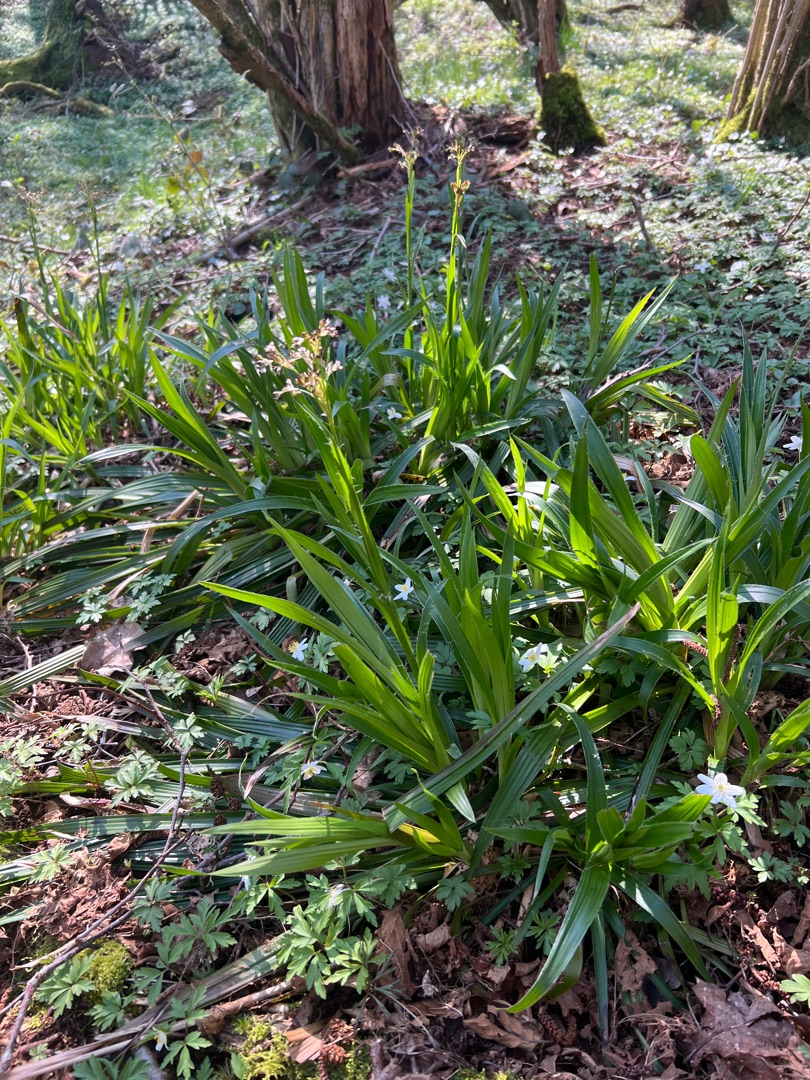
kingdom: Plantae
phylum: Tracheophyta
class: Liliopsida
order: Poales
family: Juncaceae
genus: Luzula
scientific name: Luzula sylvatica
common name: Stor frytle
